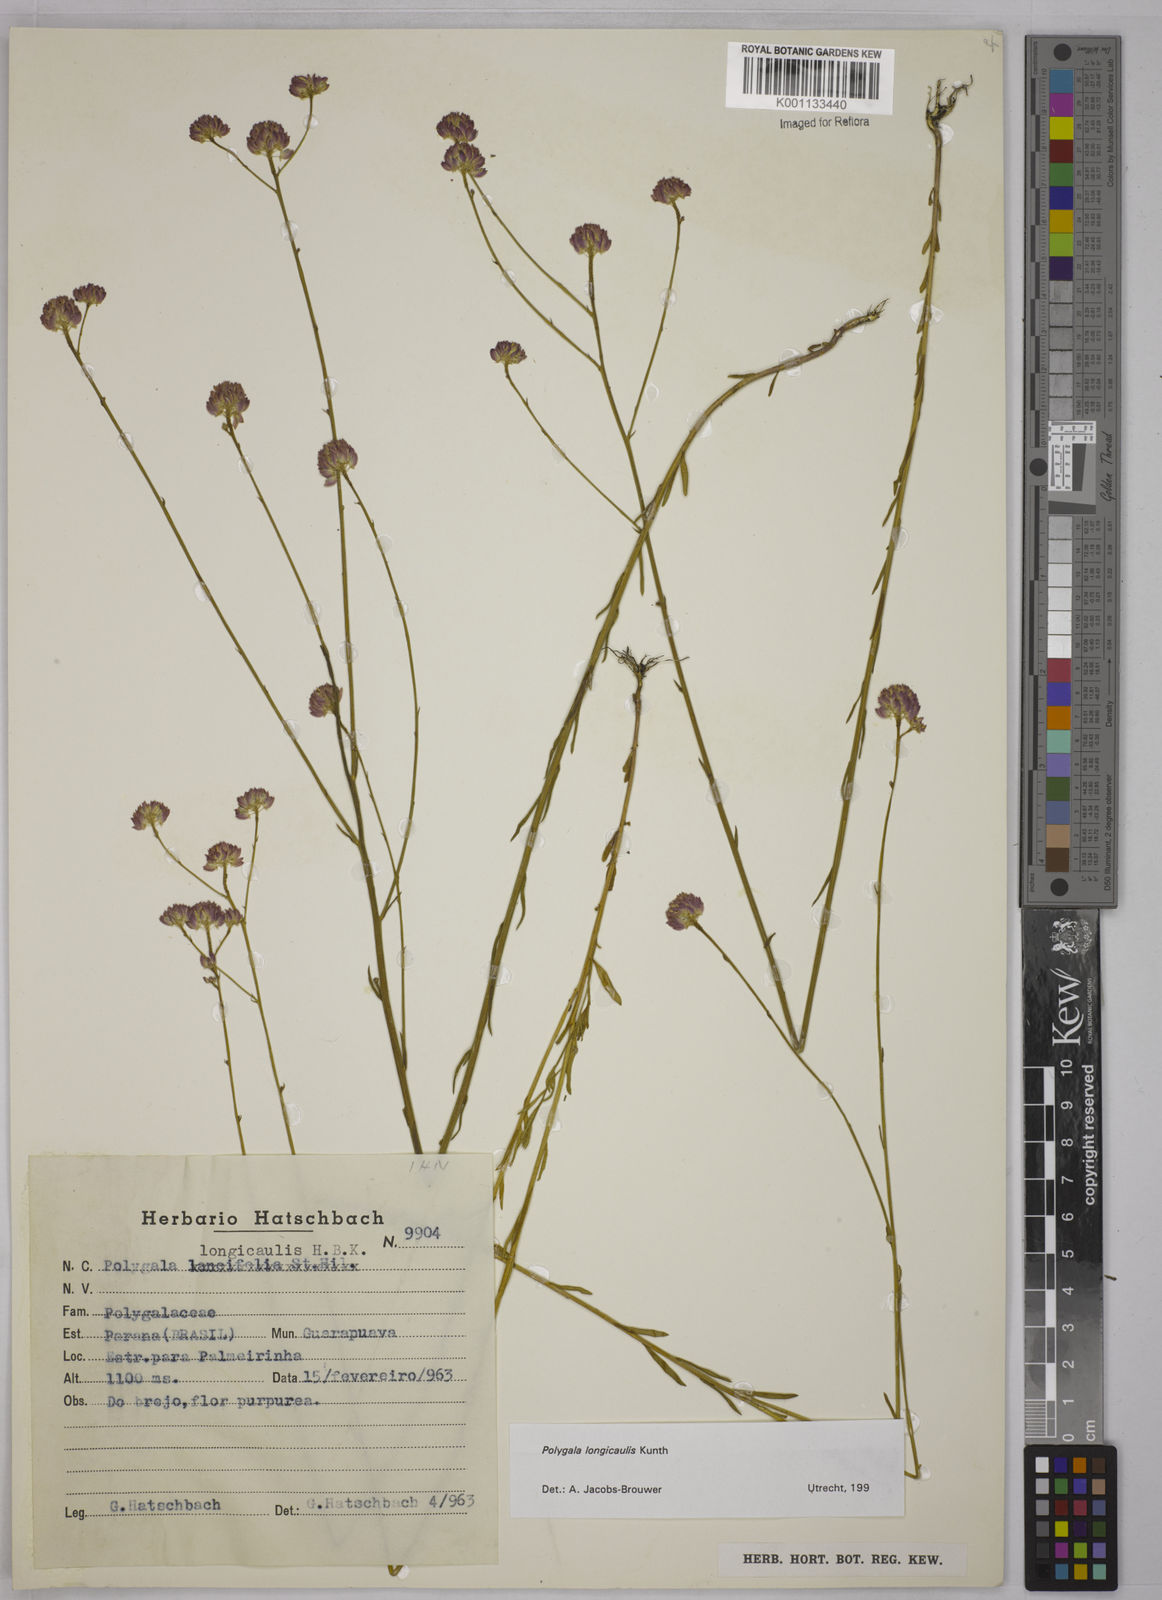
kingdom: Plantae
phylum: Tracheophyta
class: Magnoliopsida
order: Fabales
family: Polygalaceae
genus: Polygala
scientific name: Polygala longicaulis
